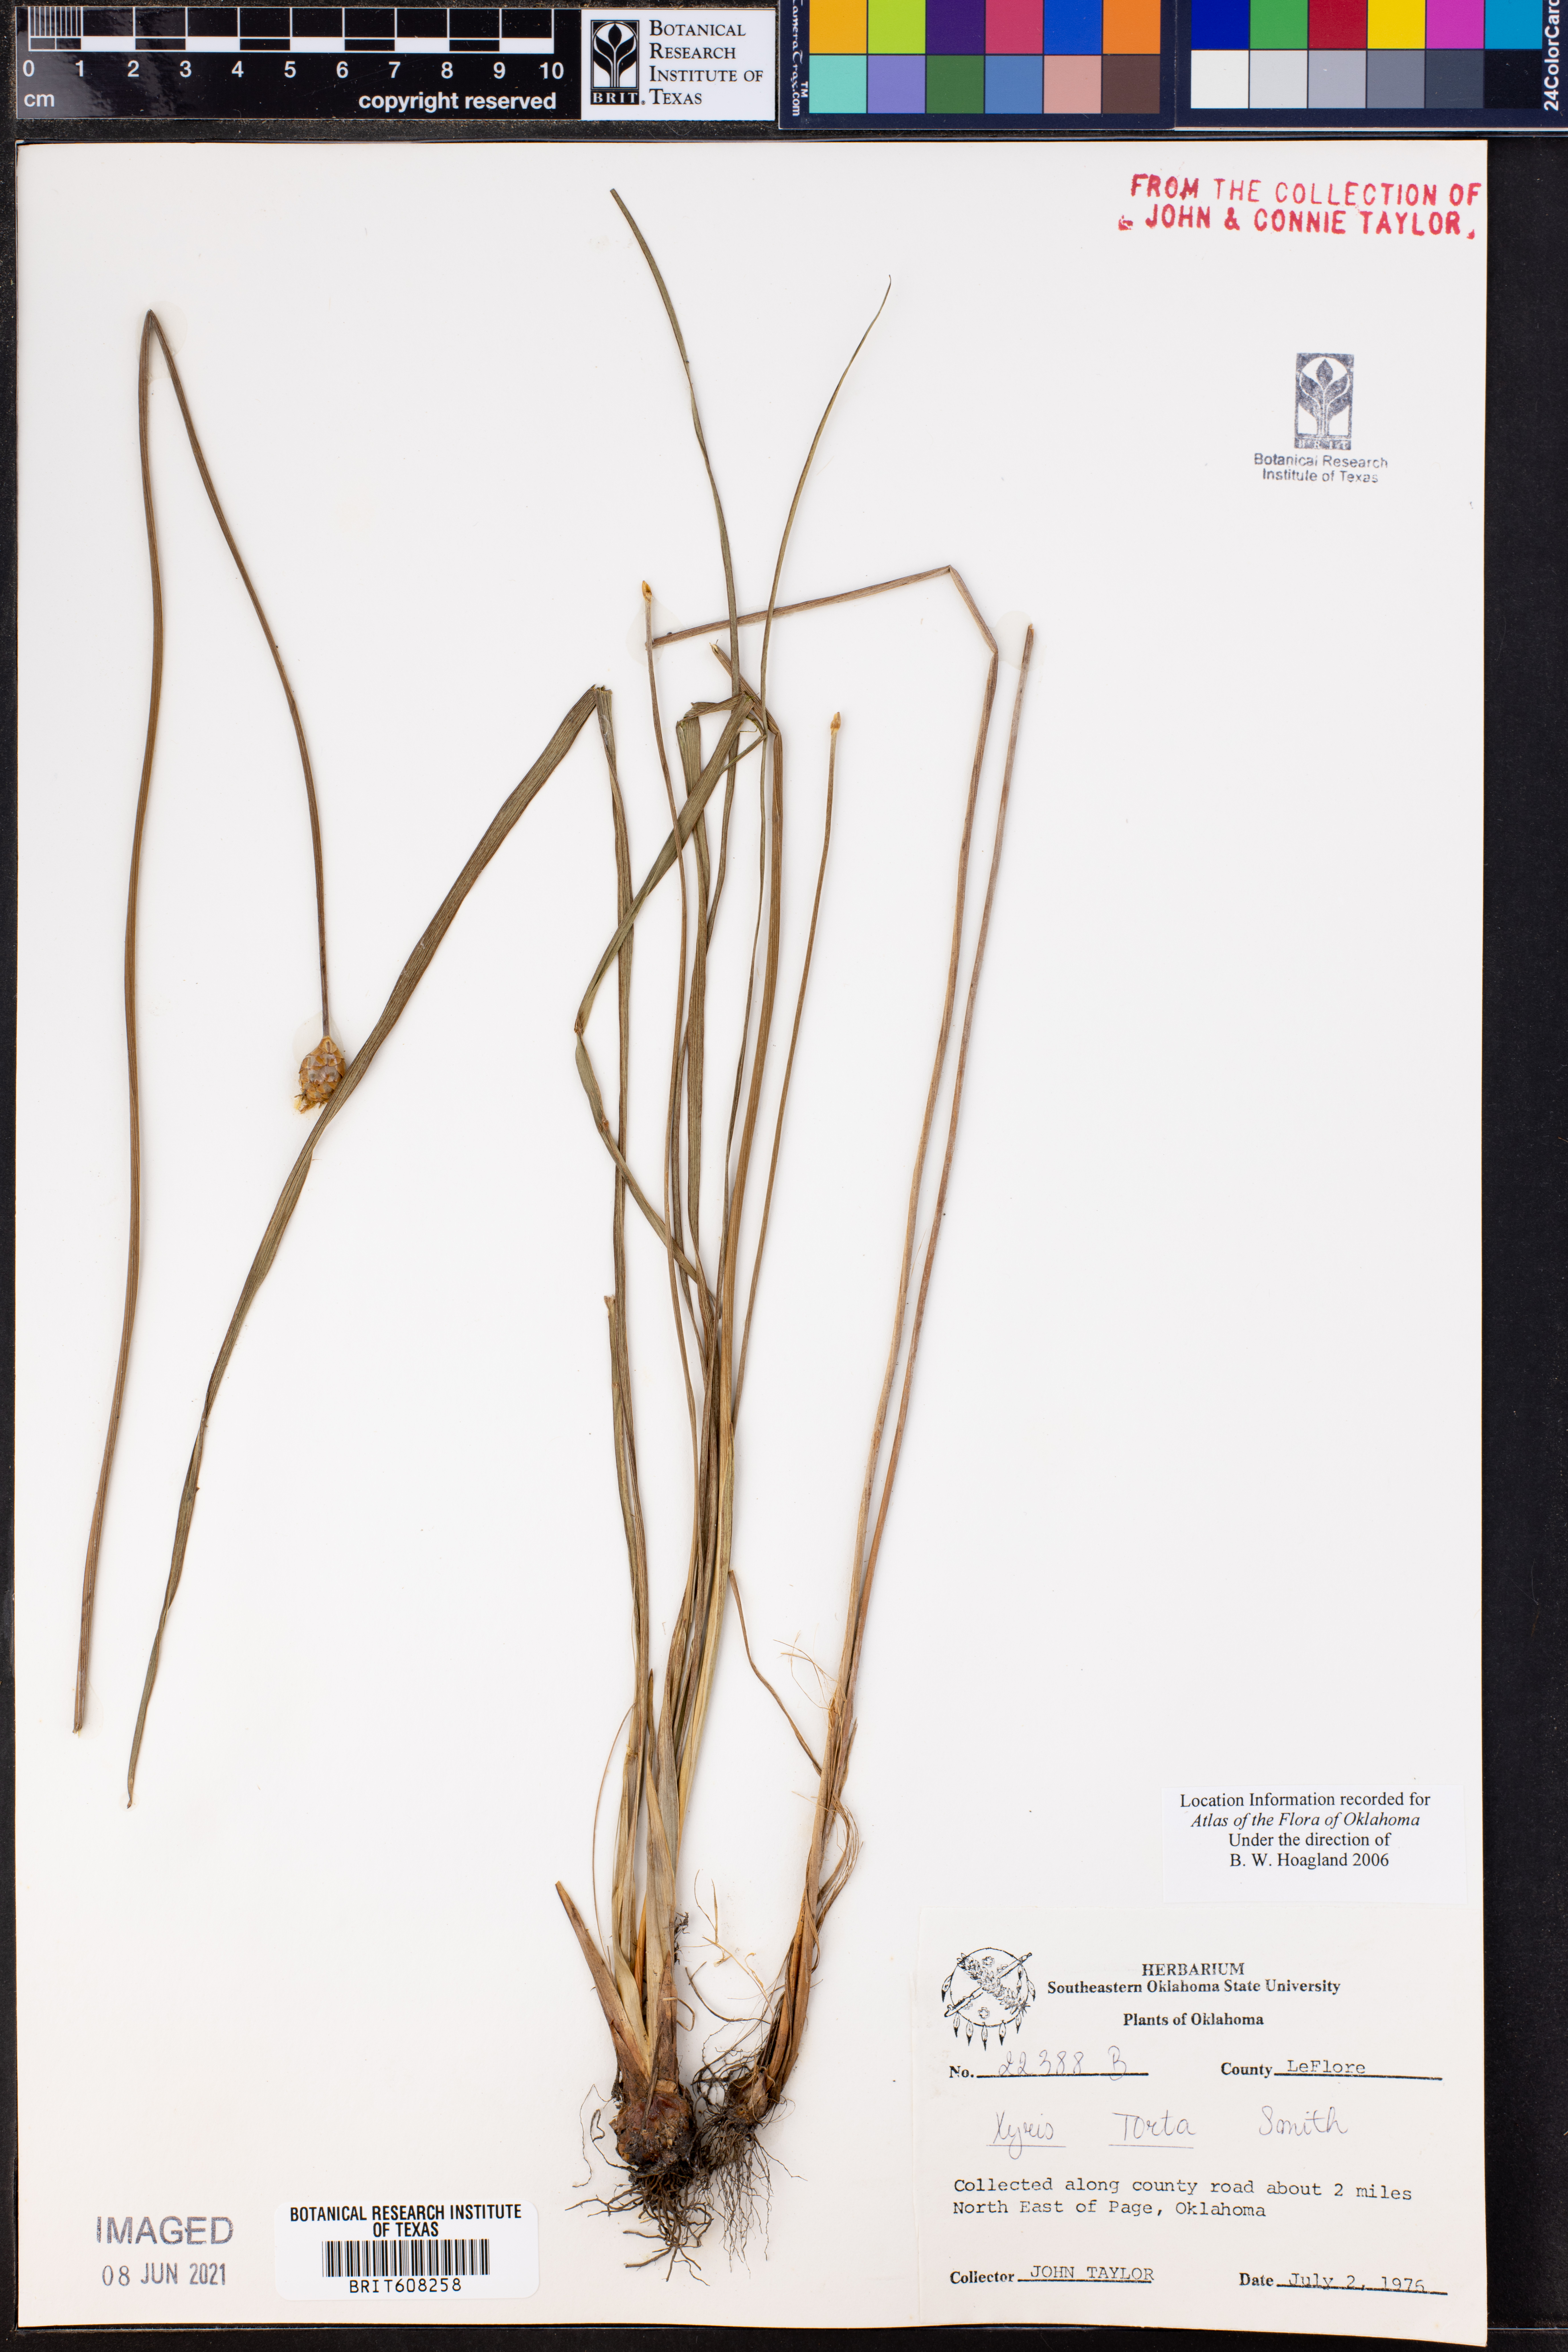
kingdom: Plantae
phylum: Tracheophyta
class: Liliopsida
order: Poales
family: Xyridaceae
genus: Xyris
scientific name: Xyris torta
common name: Common yelloweyed grass
